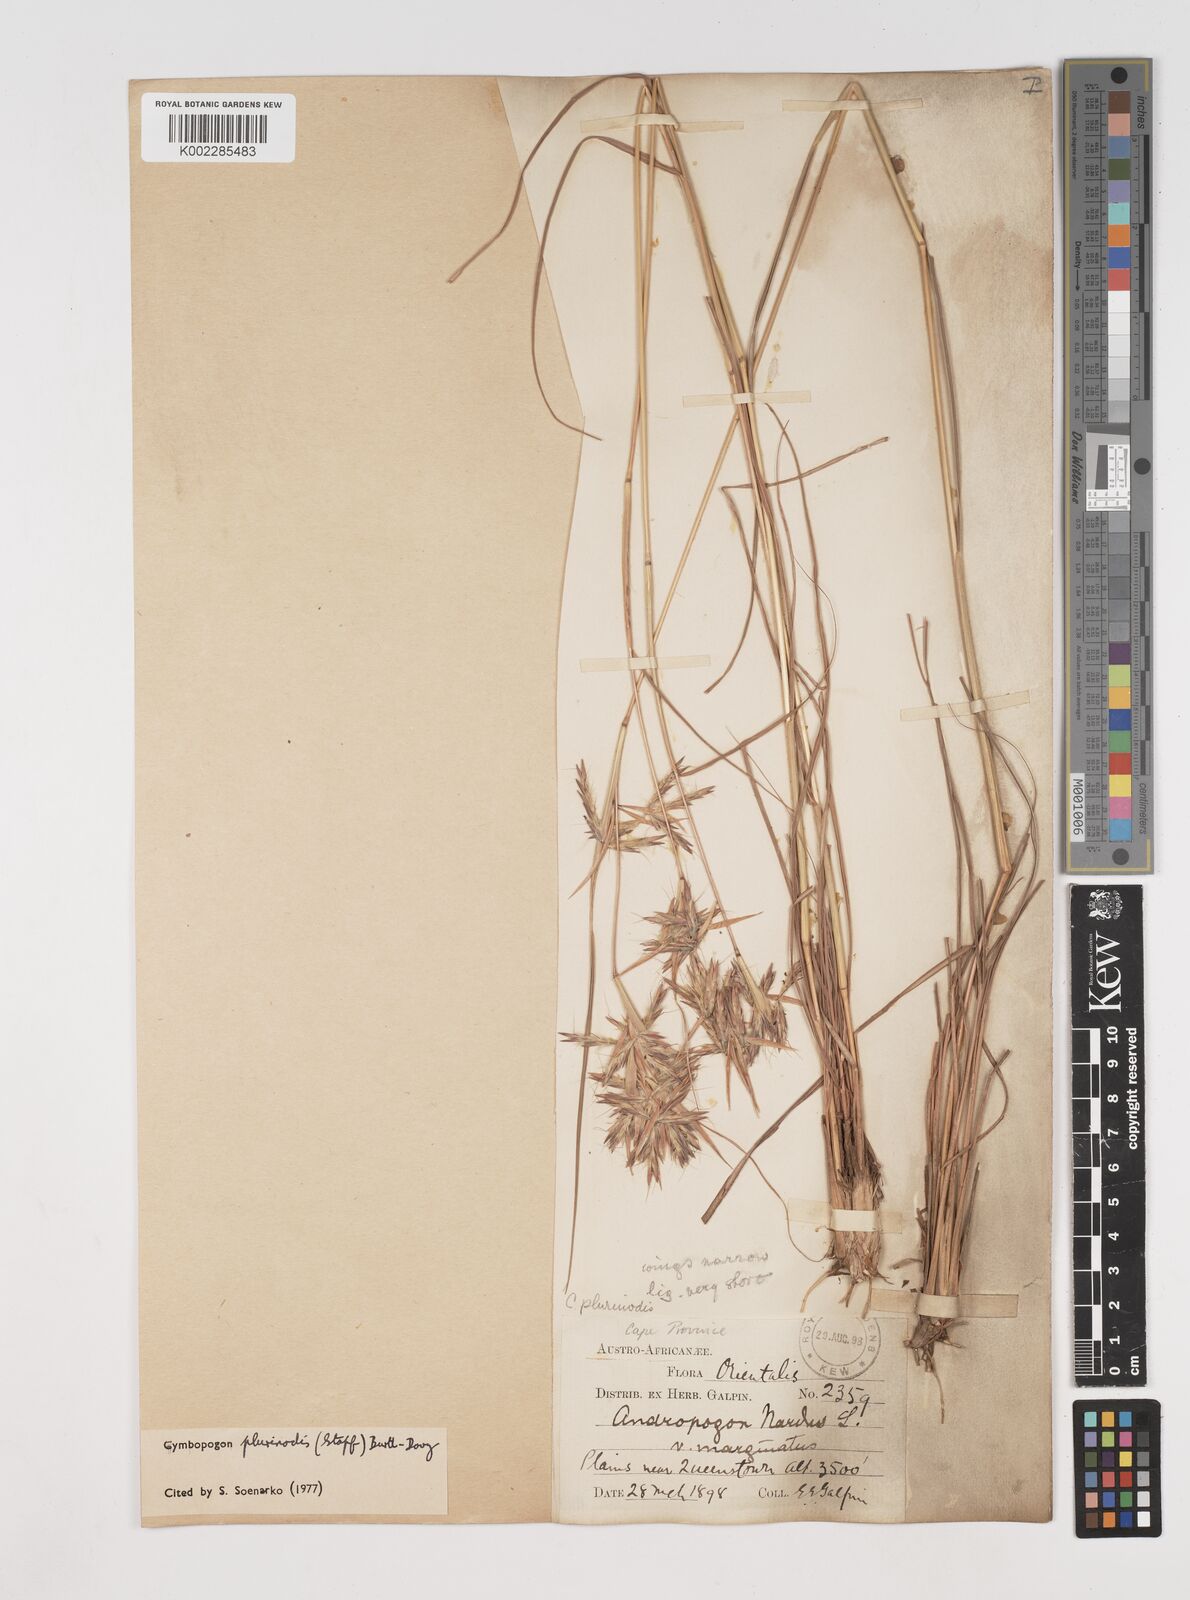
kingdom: Plantae
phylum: Tracheophyta
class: Liliopsida
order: Poales
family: Poaceae
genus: Cymbopogon
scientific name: Cymbopogon pospischilii
